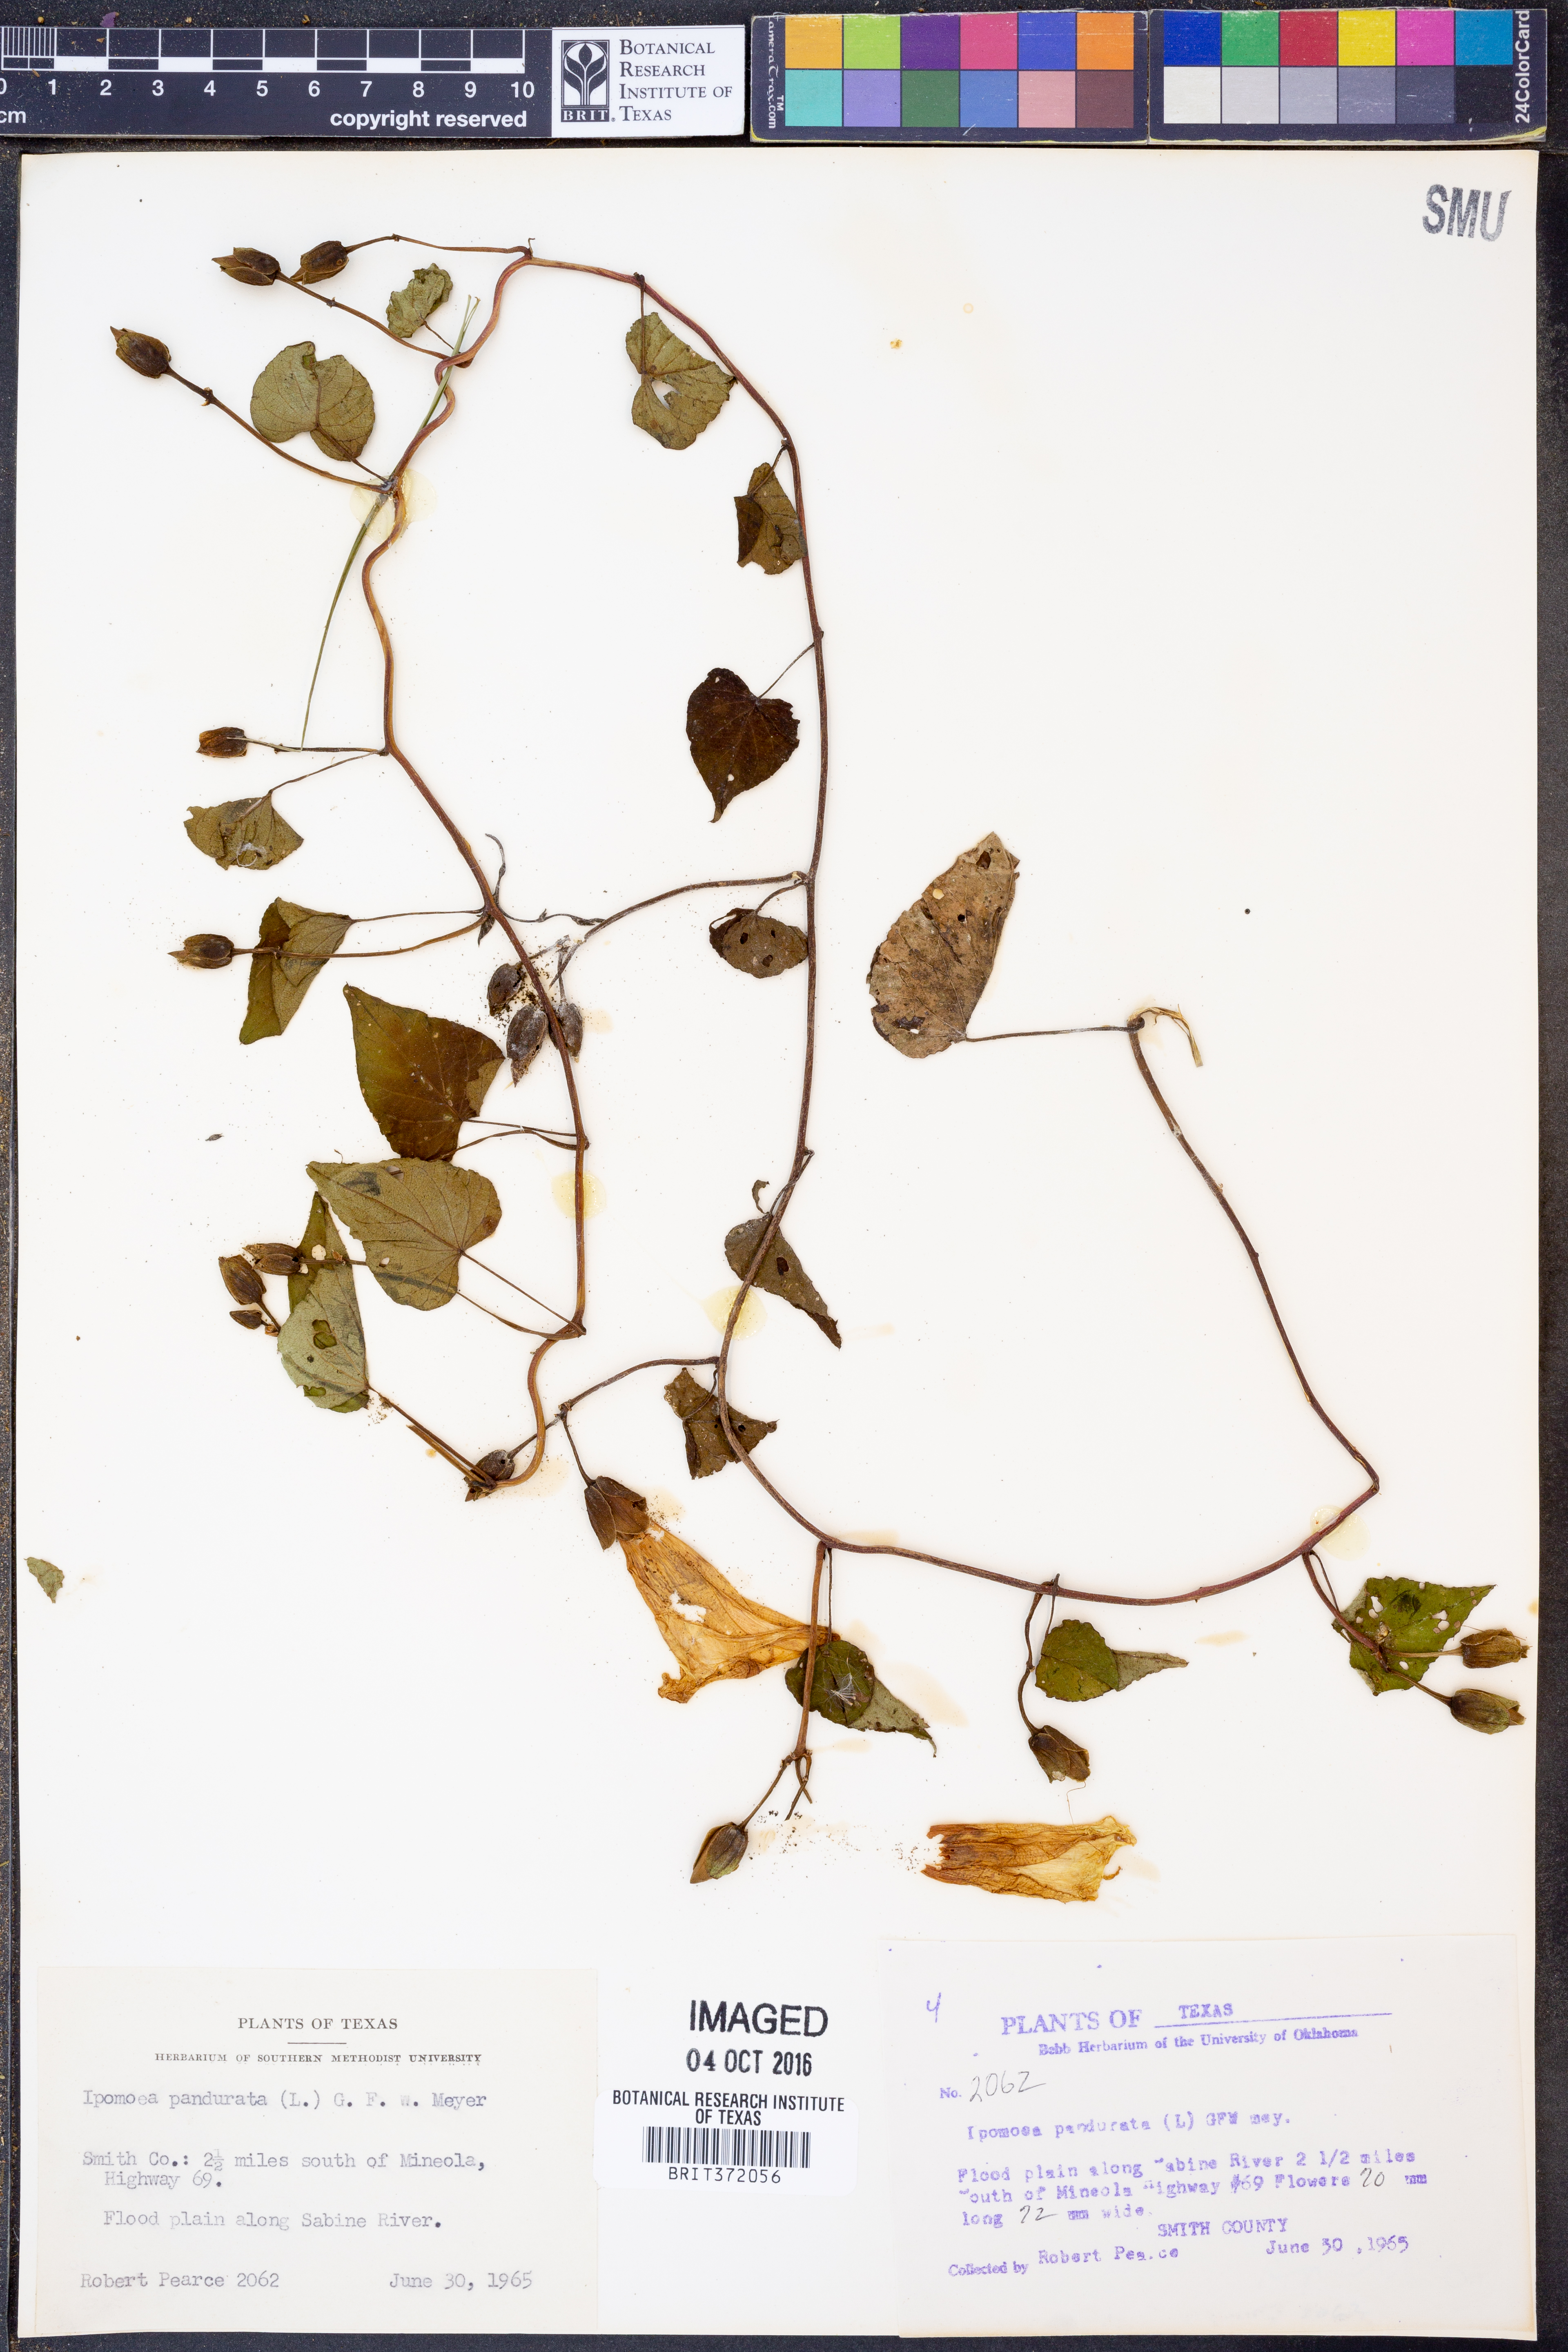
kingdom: Plantae
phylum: Tracheophyta
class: Magnoliopsida
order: Solanales
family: Convolvulaceae
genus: Ipomoea
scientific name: Ipomoea pandurata
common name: Man-of-the-earth
